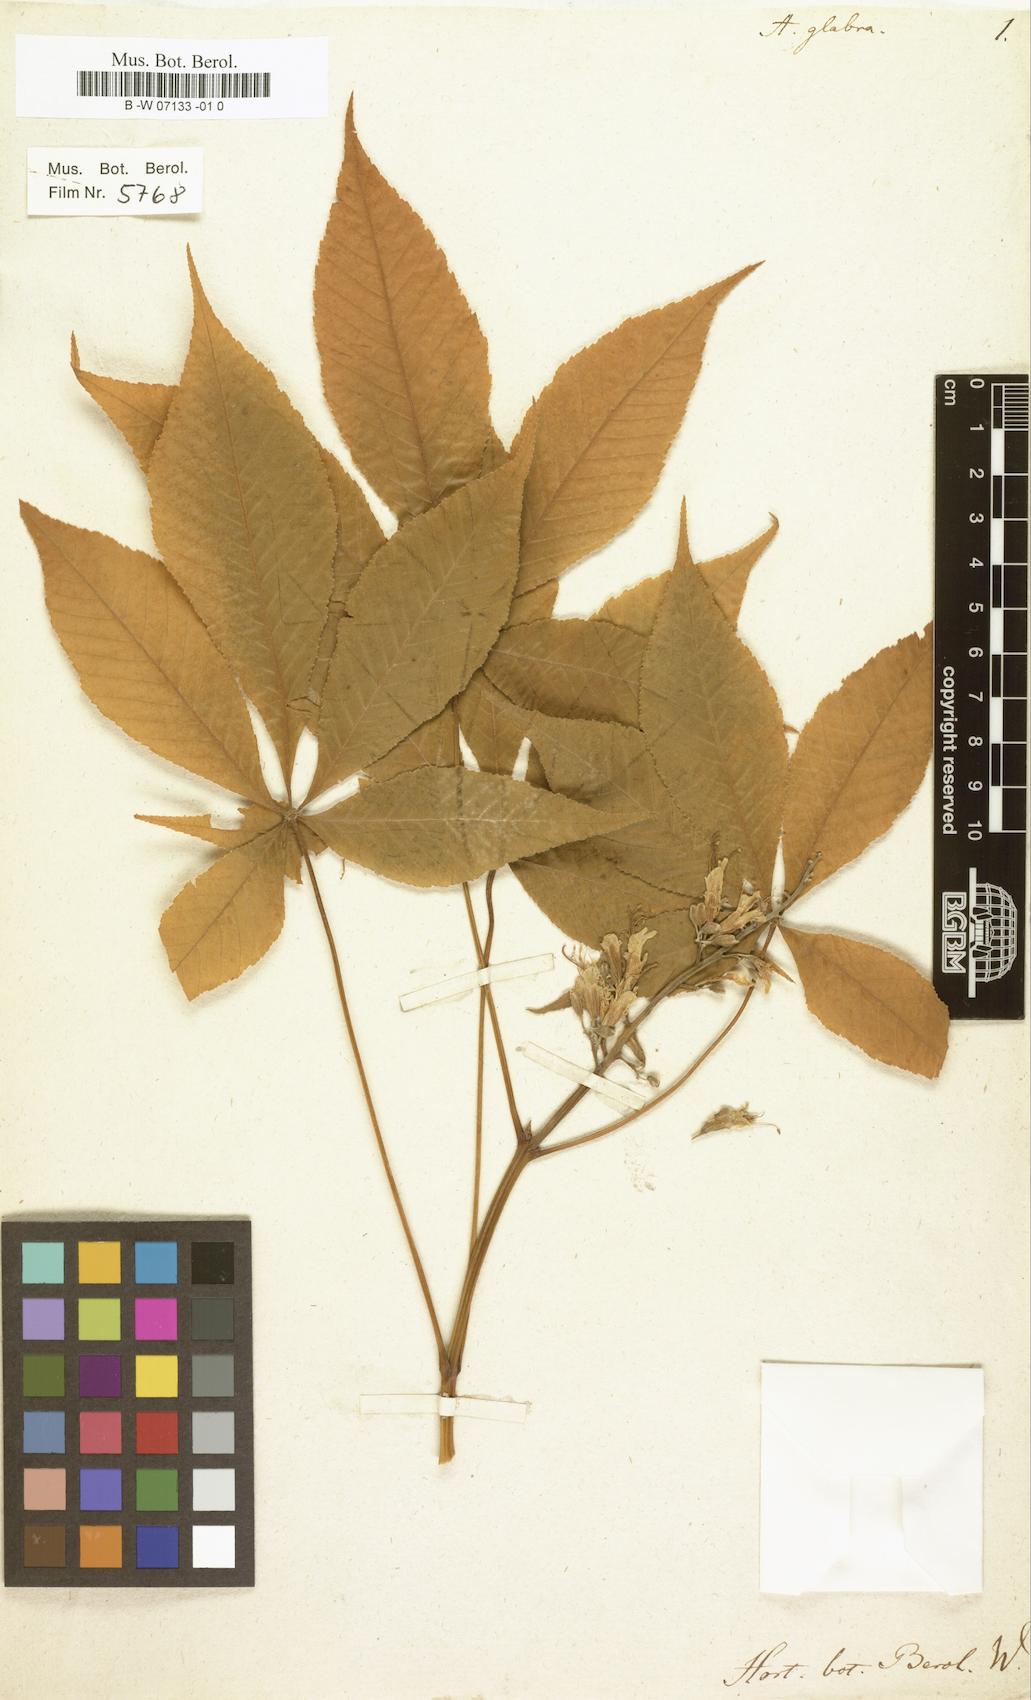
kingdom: Plantae
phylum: Tracheophyta
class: Magnoliopsida
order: Sapindales
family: Sapindaceae
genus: Aesculus
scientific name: Aesculus glabra
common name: Ohio buckeye
